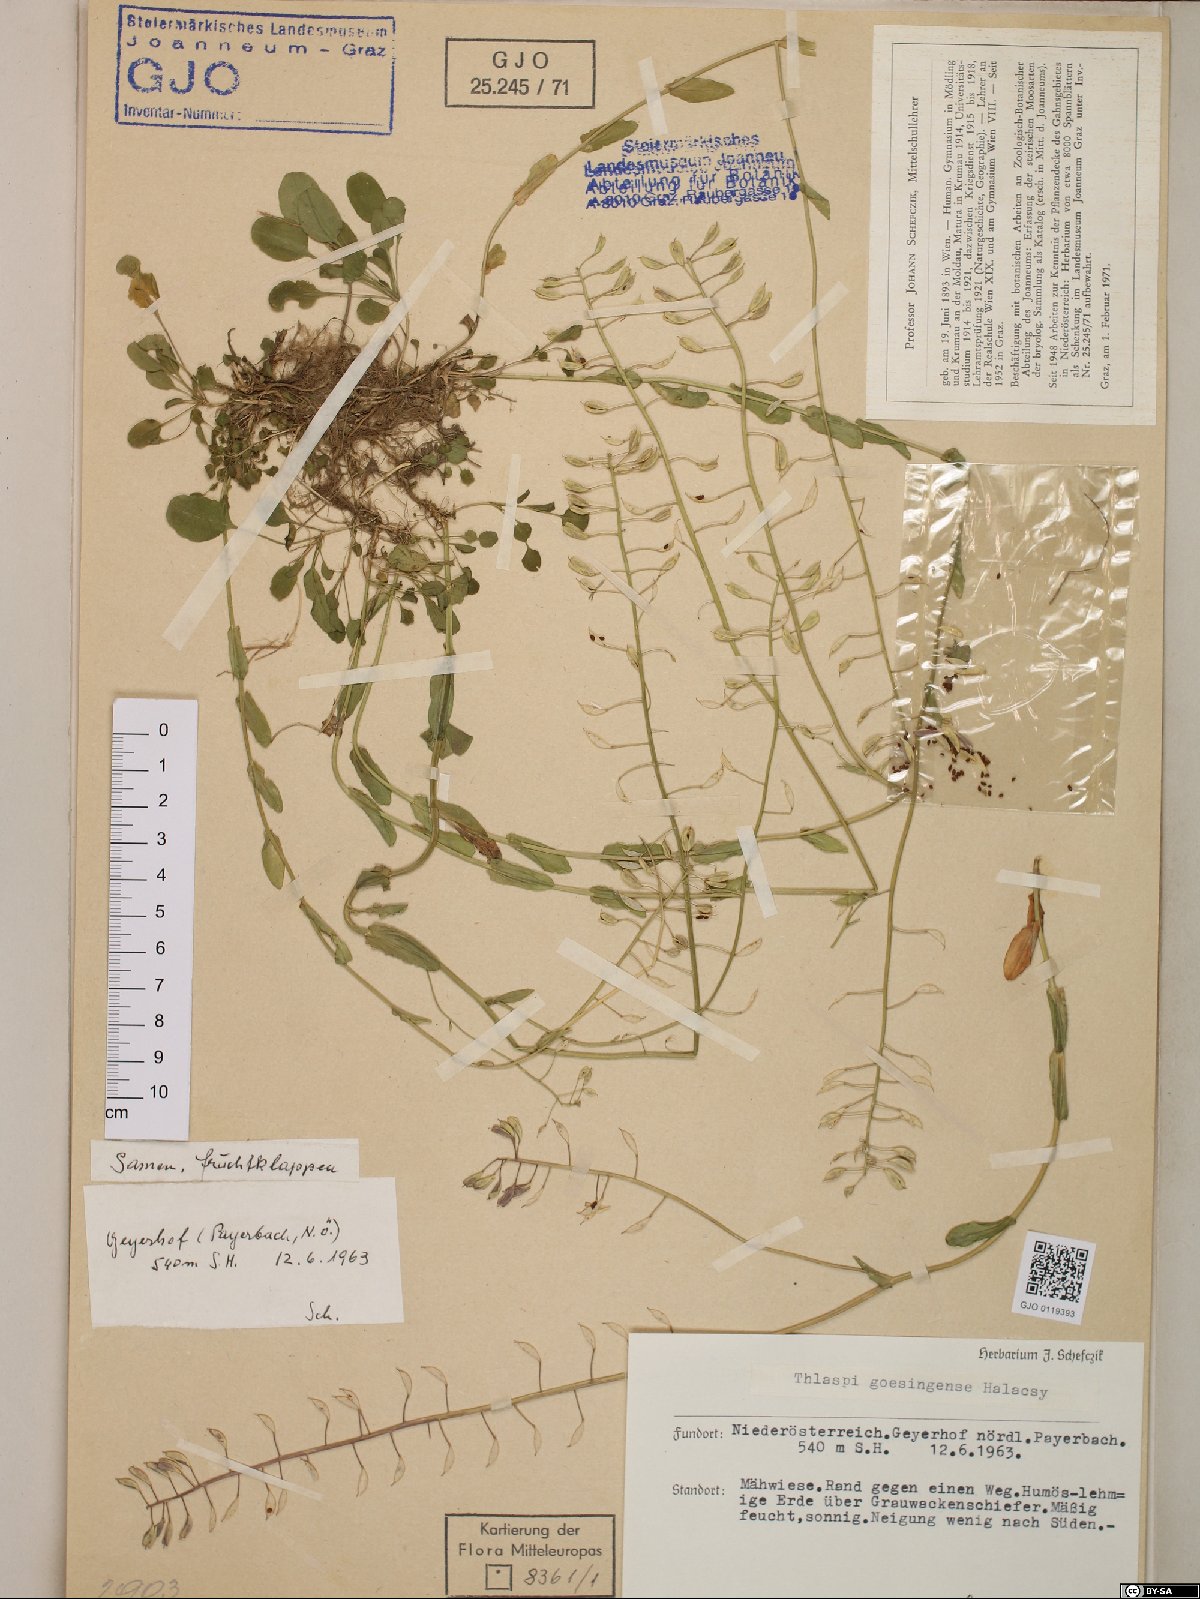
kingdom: Plantae
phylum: Tracheophyta
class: Magnoliopsida
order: Brassicales
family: Brassicaceae
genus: Noccaea
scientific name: Noccaea goesingensis
